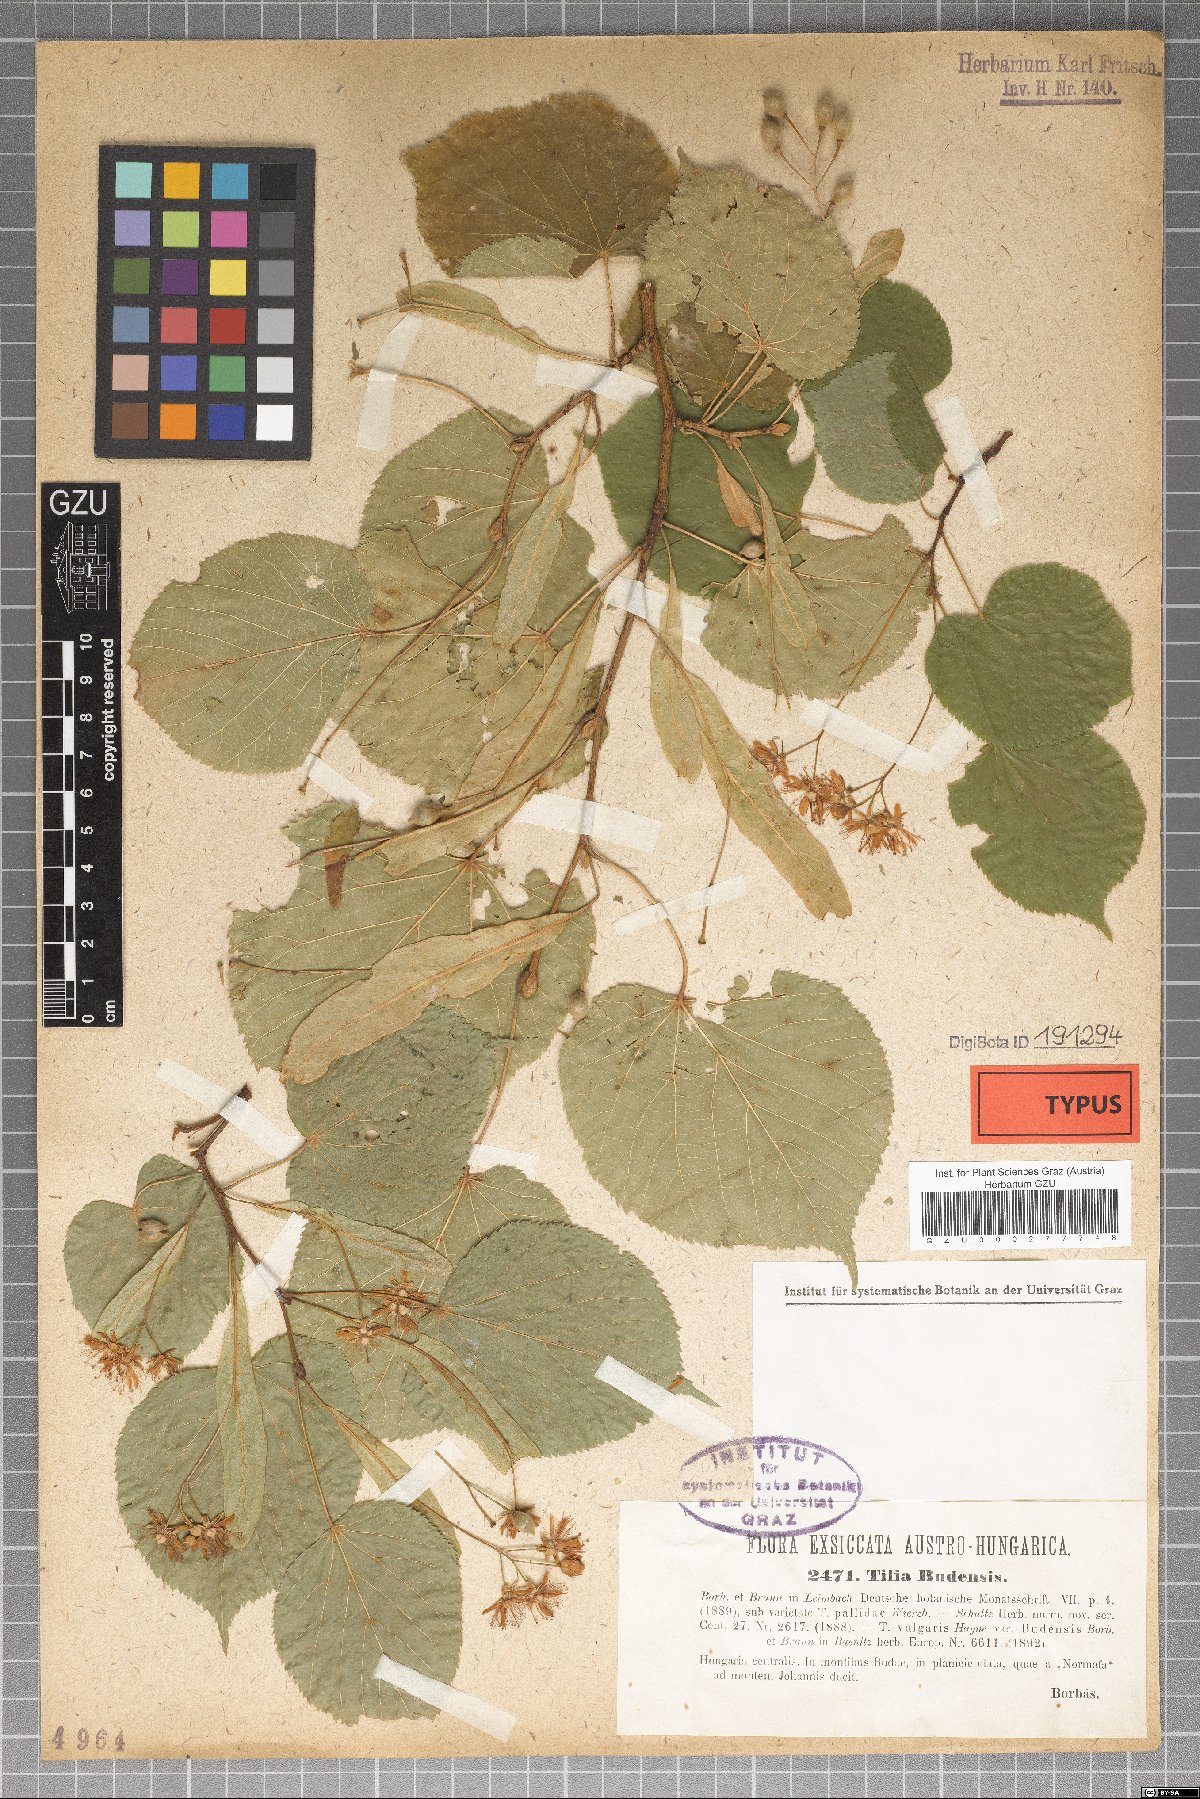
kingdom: Plantae
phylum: Tracheophyta
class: Magnoliopsida
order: Malvales
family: Malvaceae
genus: Tilia
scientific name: Tilia budensis
